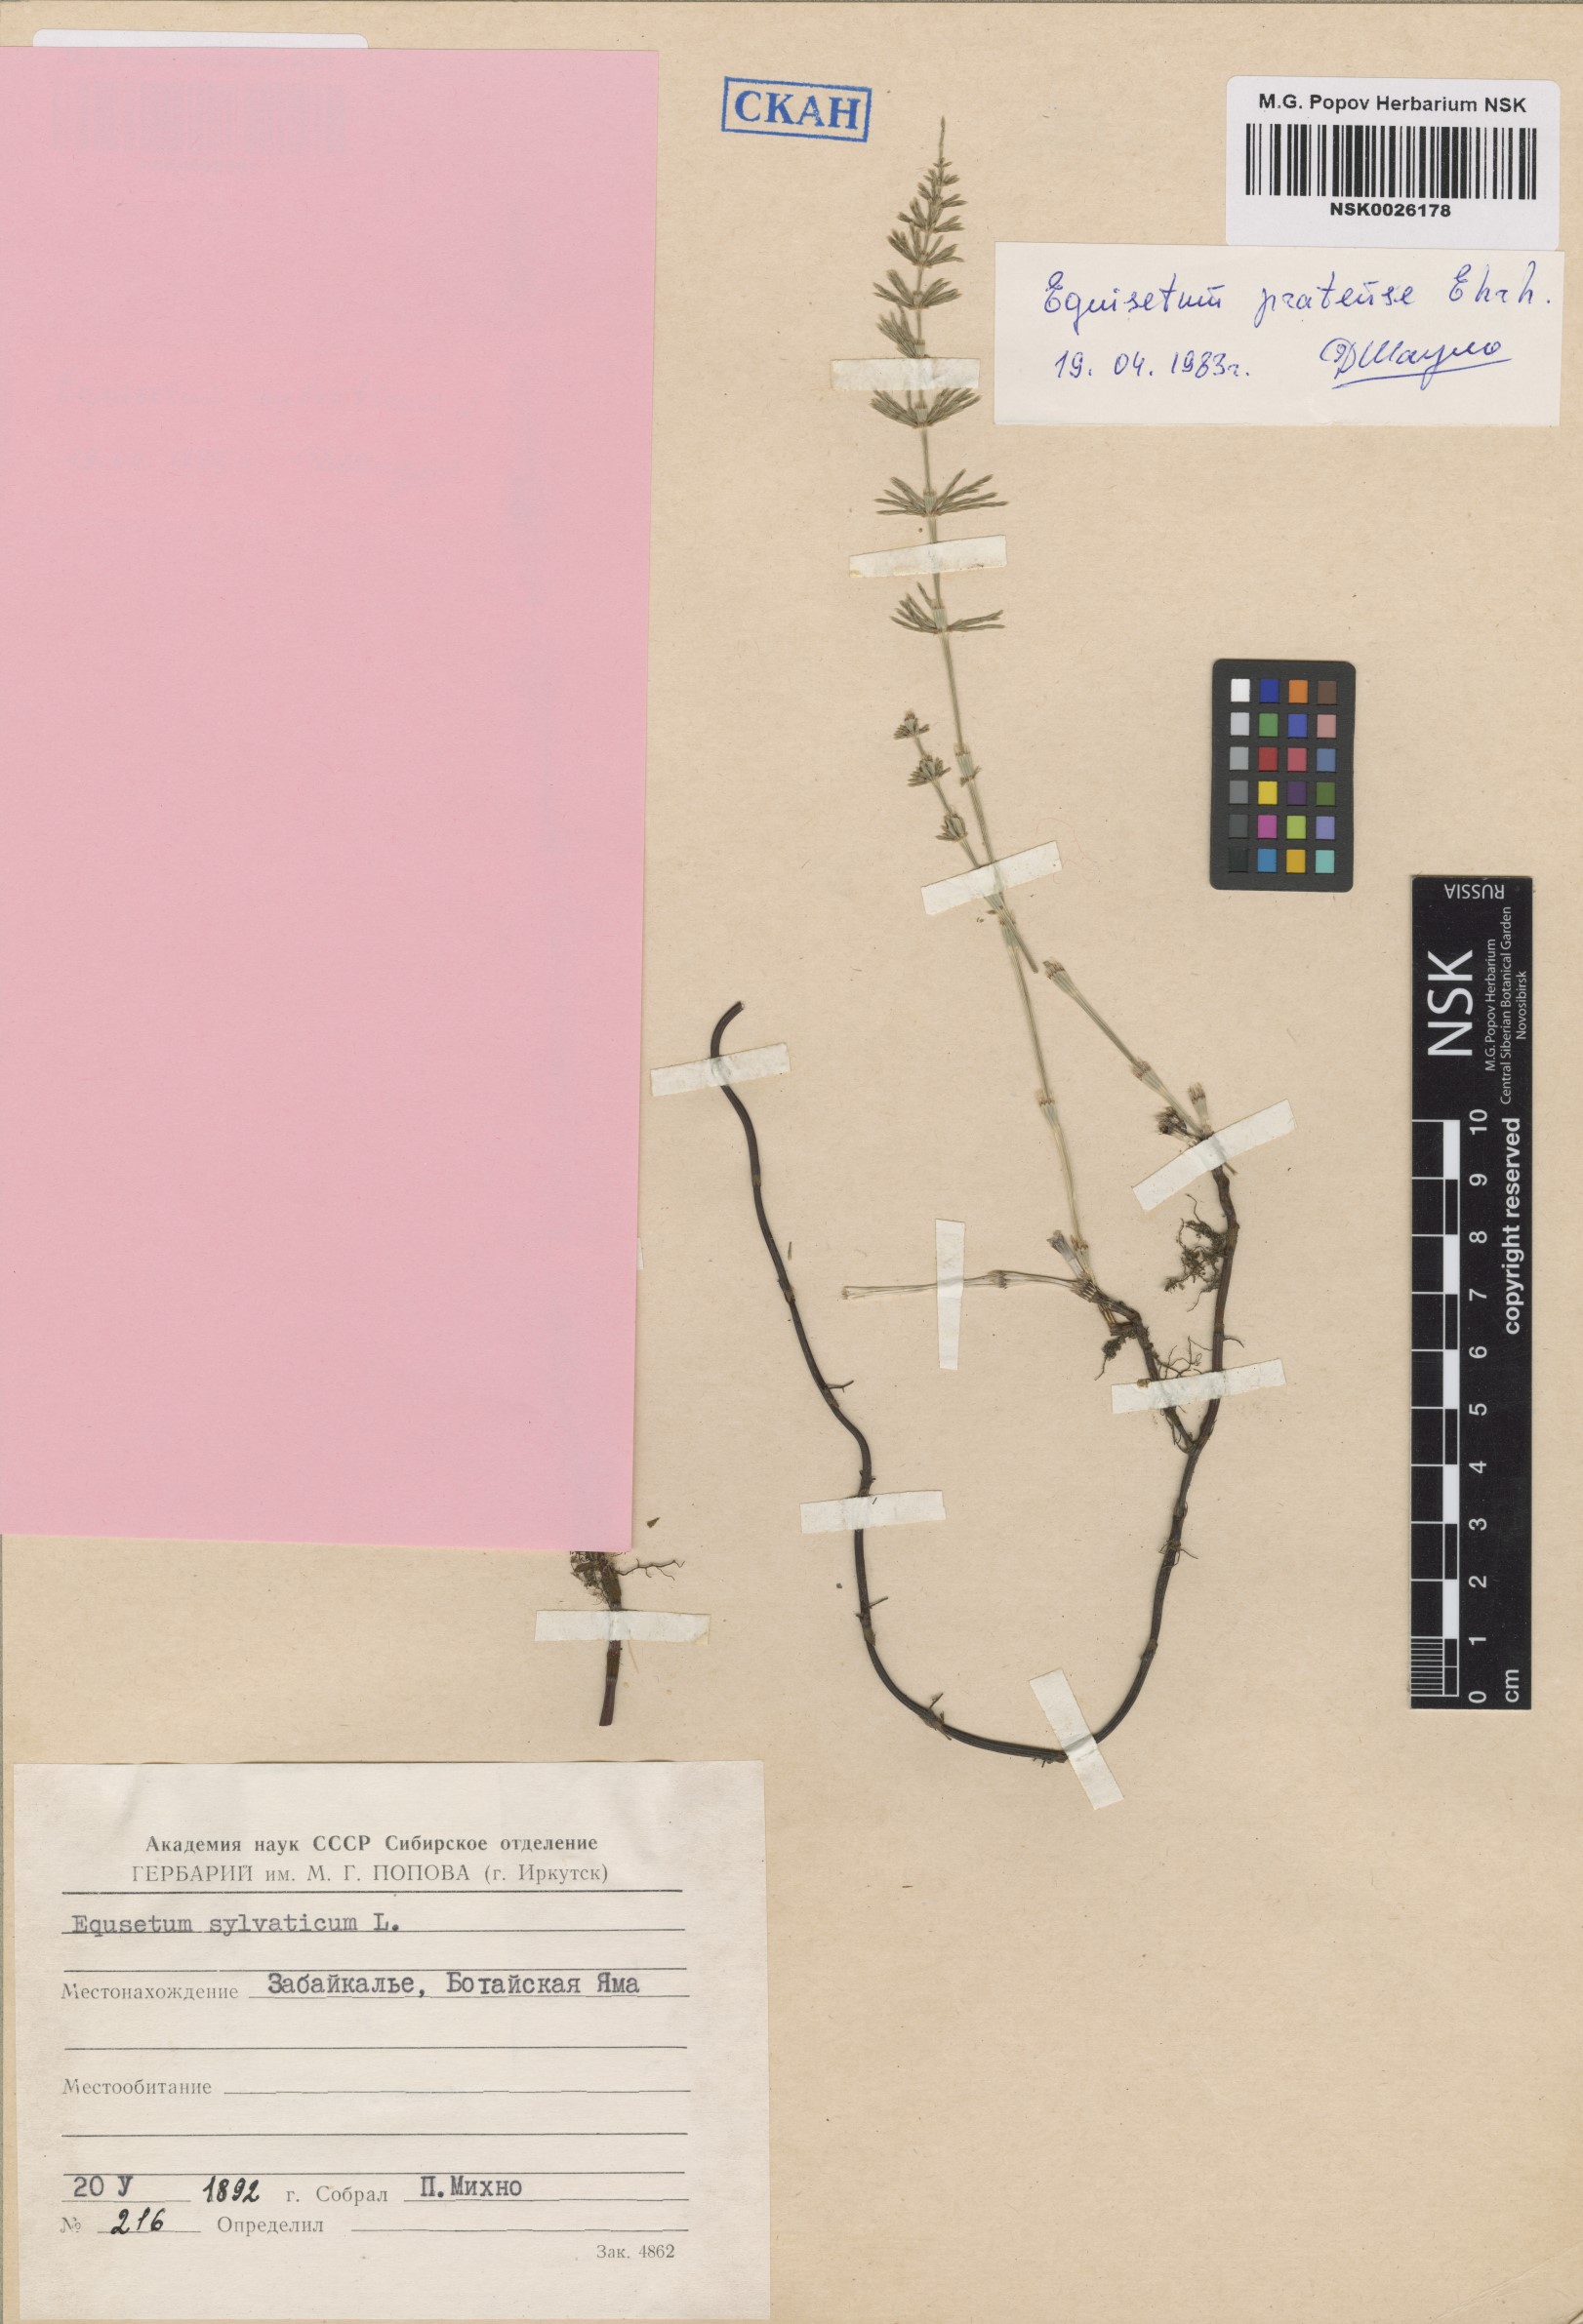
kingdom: Plantae
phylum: Tracheophyta
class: Polypodiopsida
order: Equisetales
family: Equisetaceae
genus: Equisetum
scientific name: Equisetum pratense
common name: Meadow horsetail
